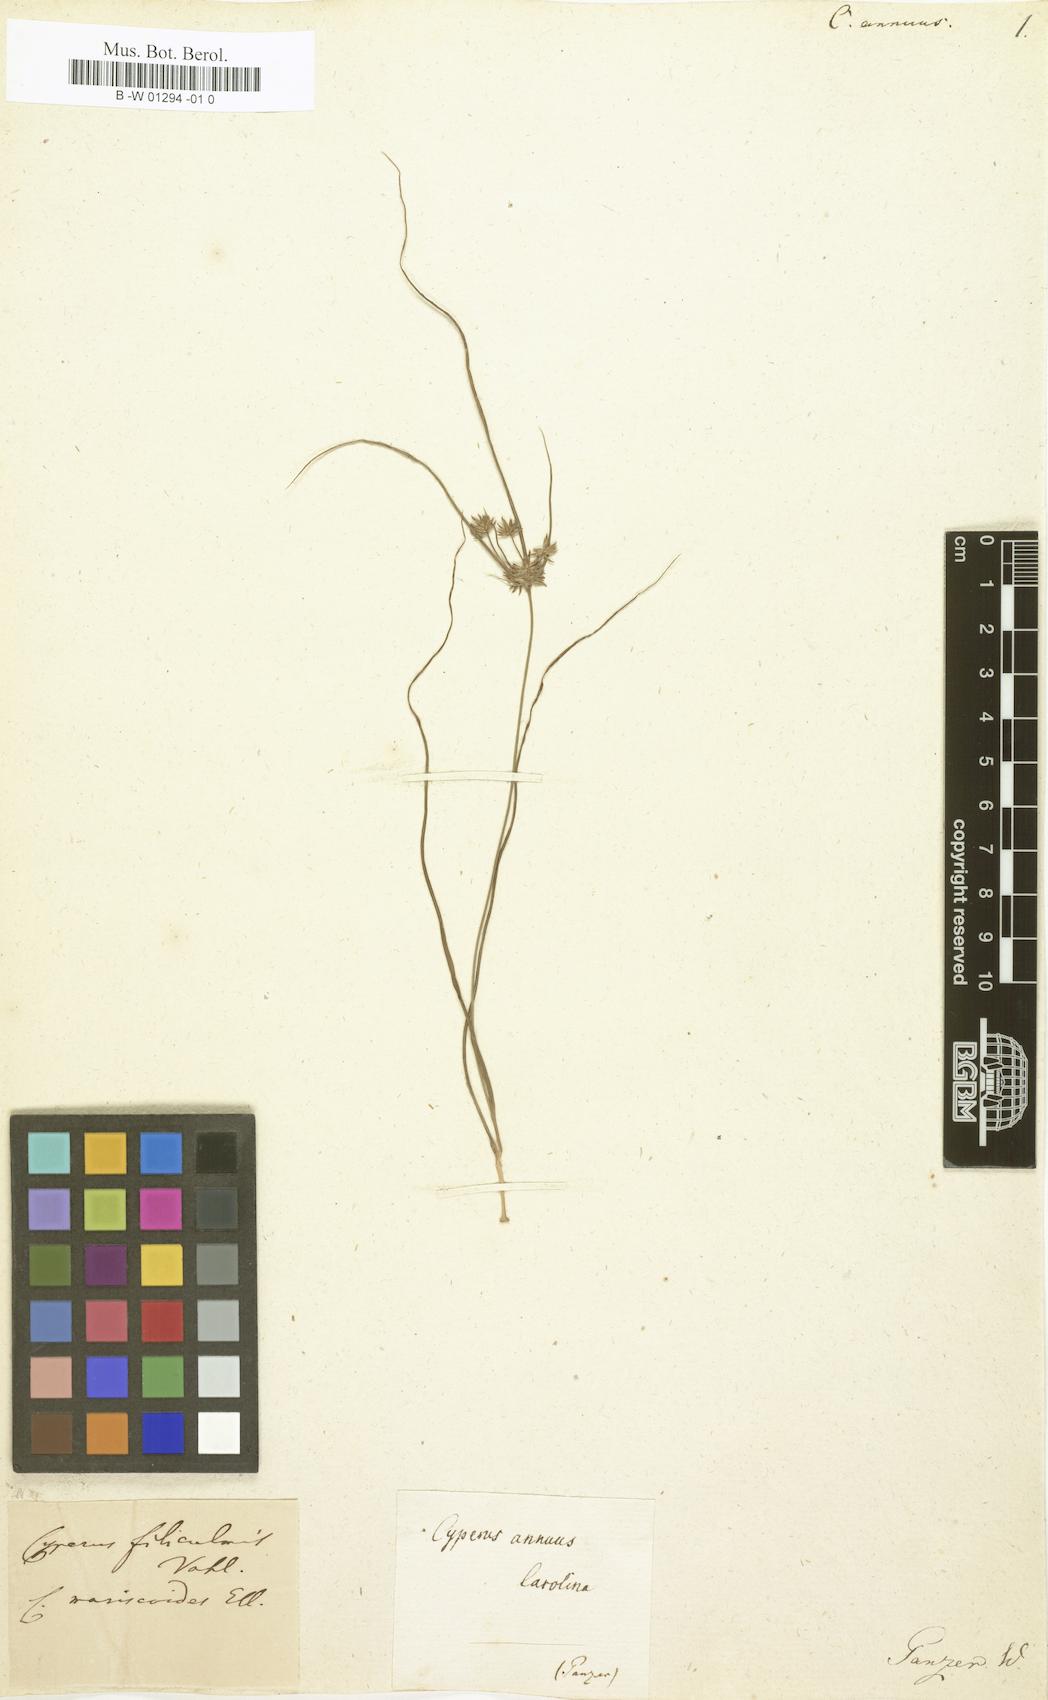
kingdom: Plantae
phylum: Tracheophyta
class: Liliopsida
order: Poales
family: Cyperaceae
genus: Cyperus
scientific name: Cyperus annuus
